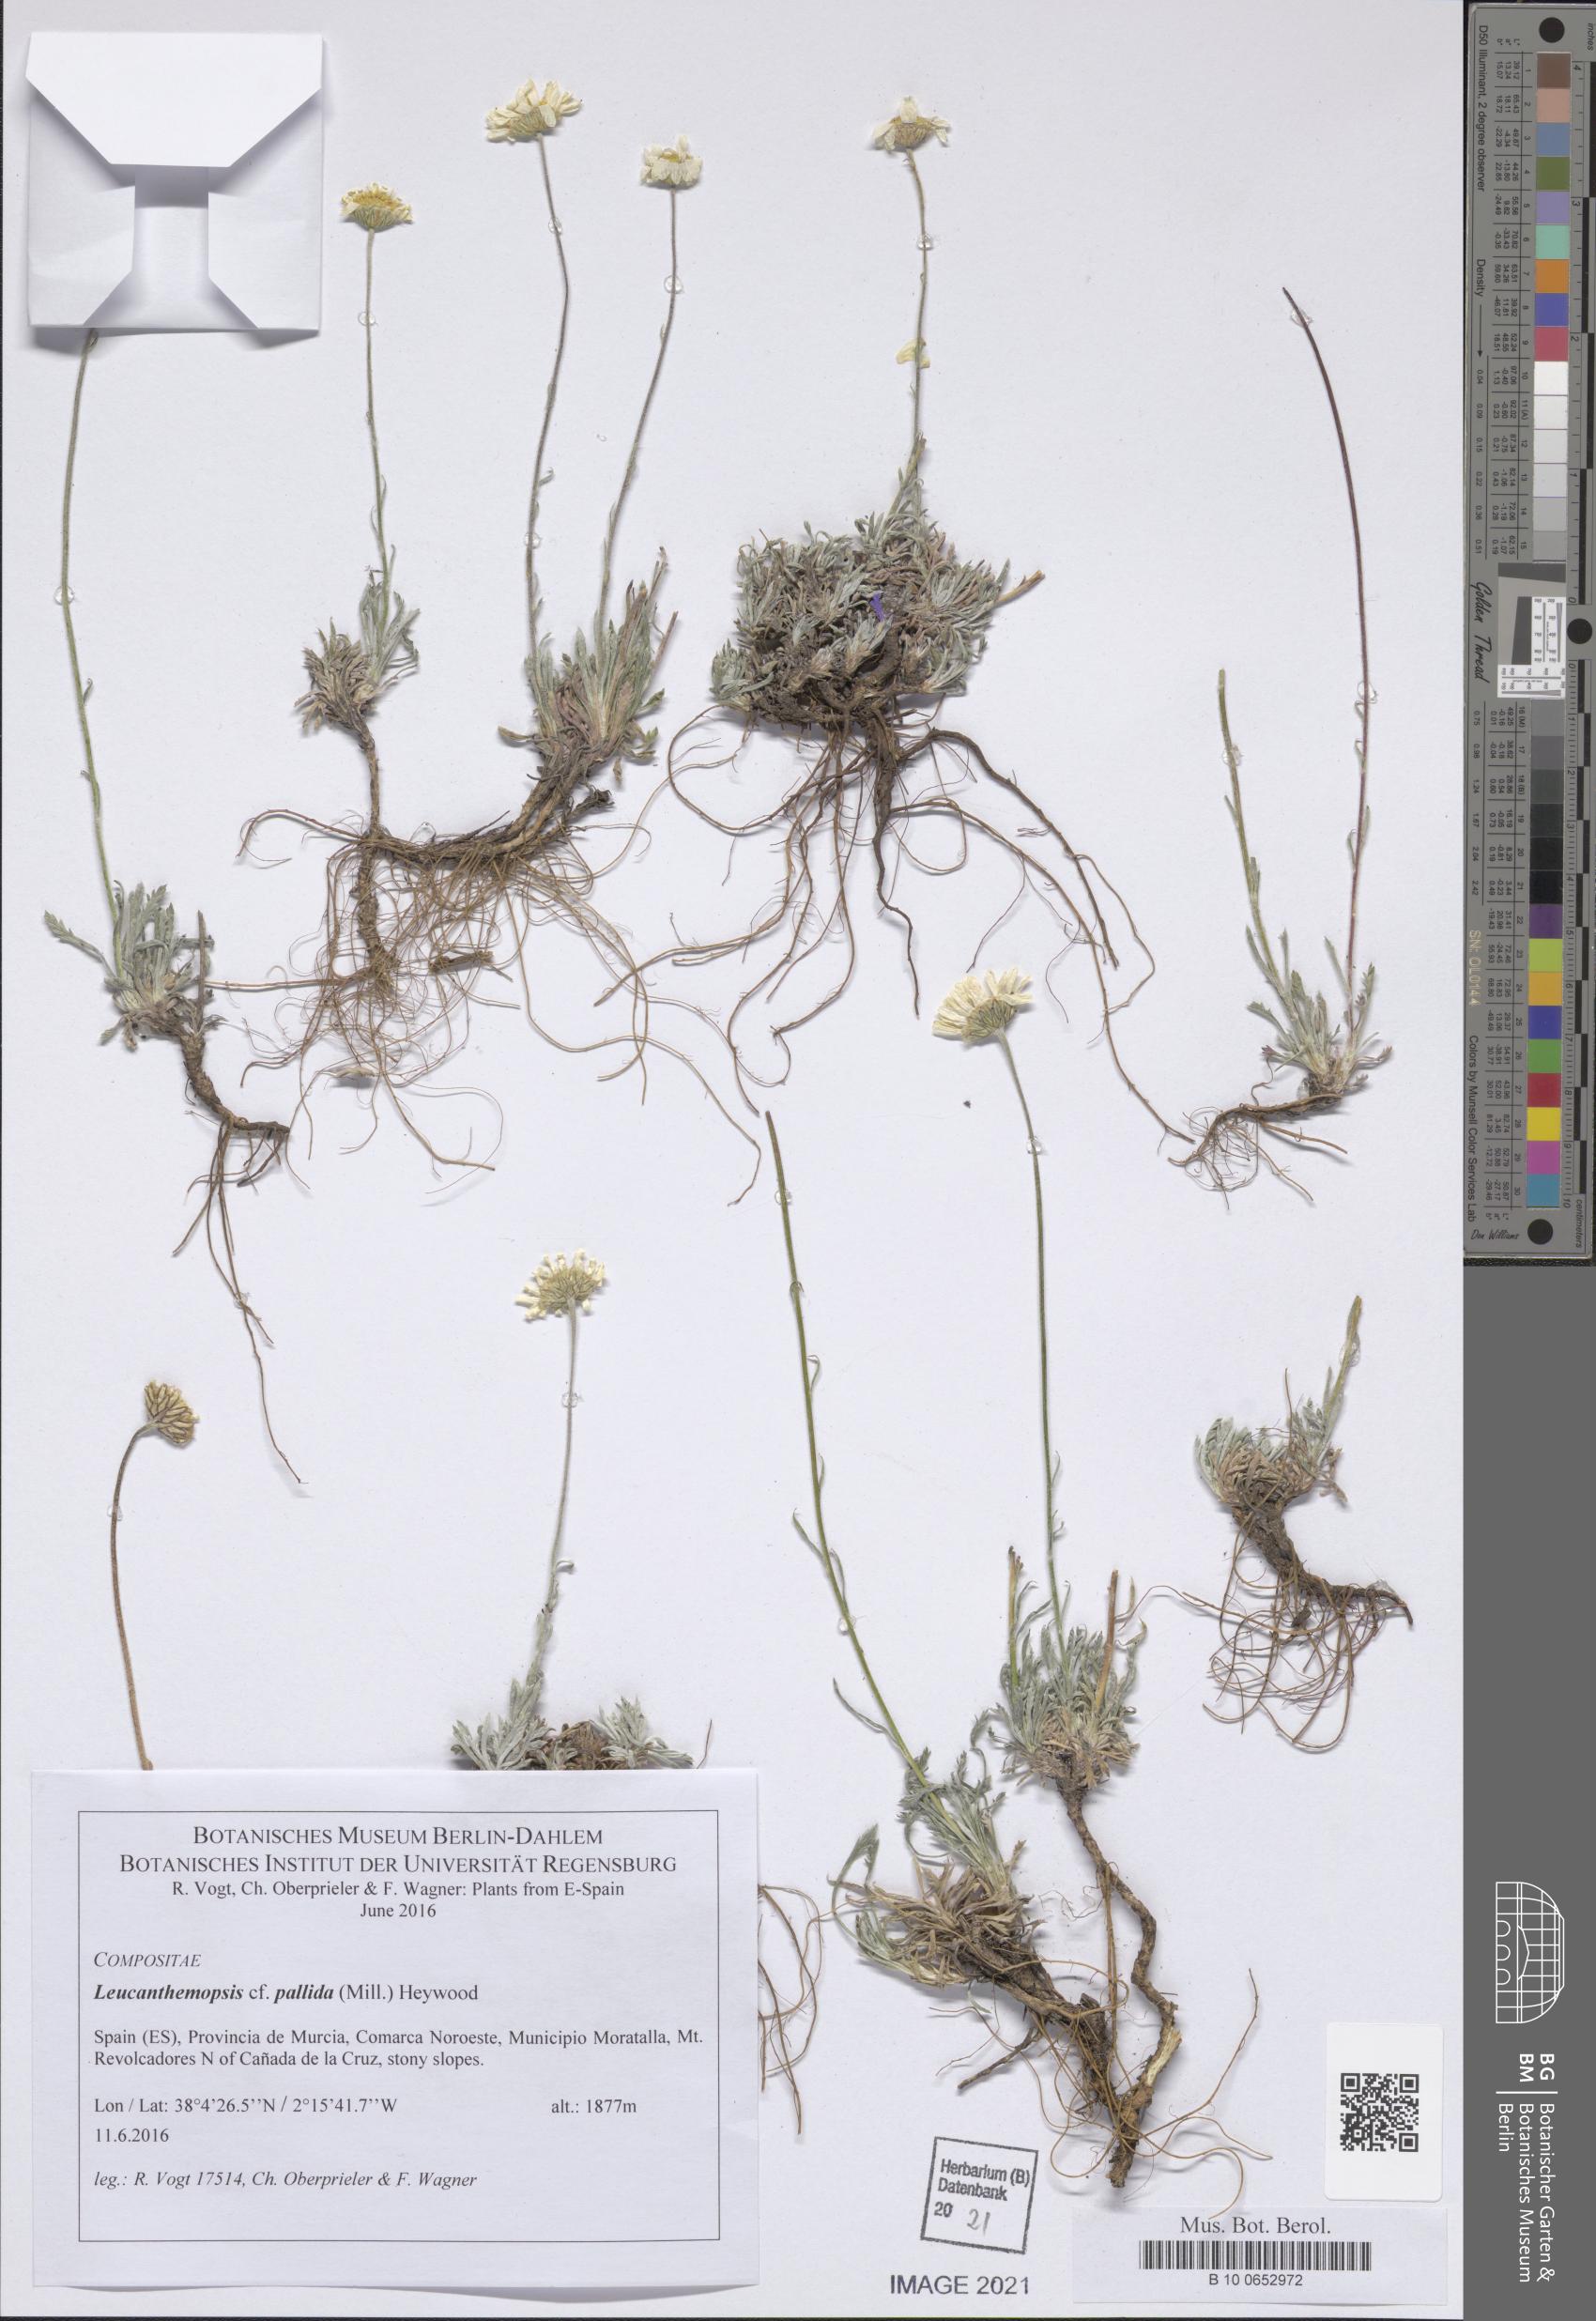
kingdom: Plantae
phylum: Tracheophyta
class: Magnoliopsida
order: Asterales
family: Asteraceae
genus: Leucanthemopsis
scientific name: Leucanthemopsis pallida
